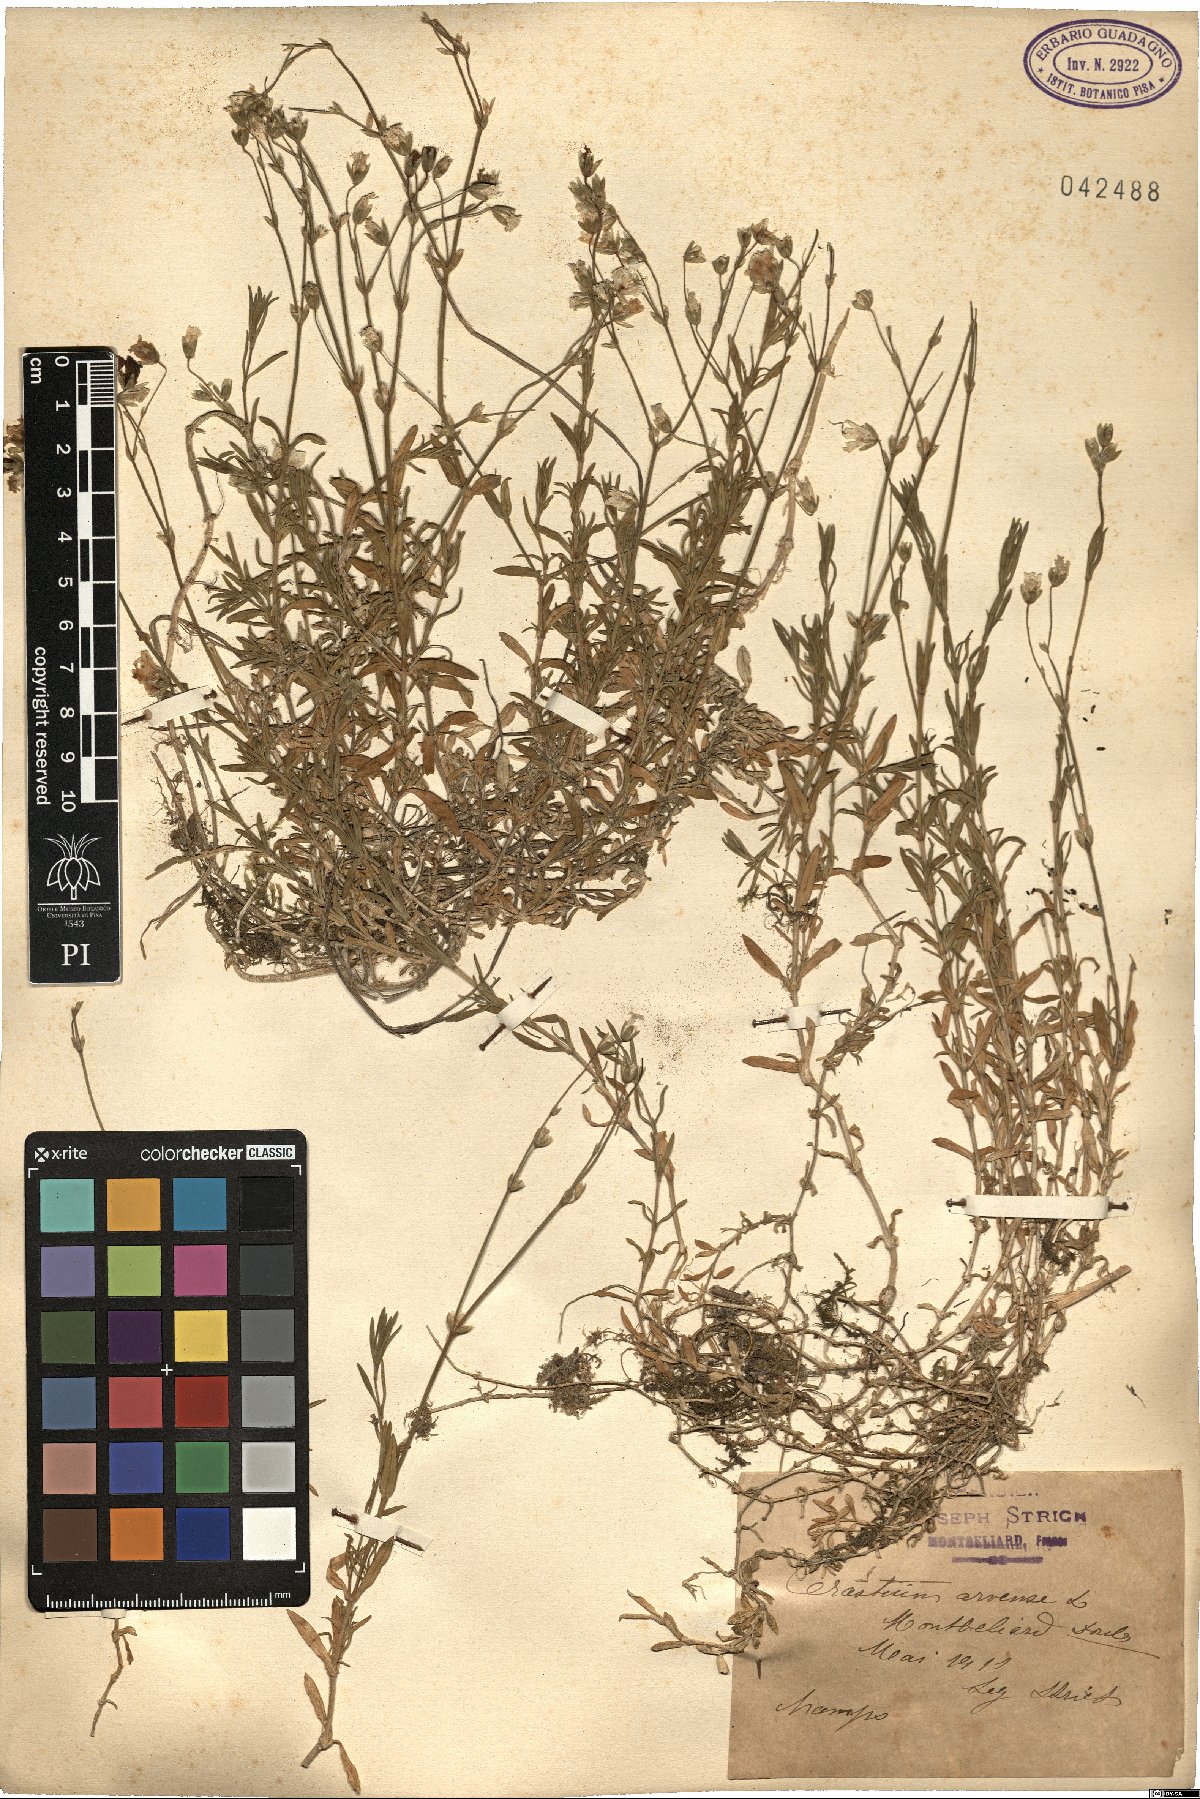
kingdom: Plantae
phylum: Tracheophyta
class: Magnoliopsida
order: Caryophyllales
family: Caryophyllaceae
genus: Cerastium
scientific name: Cerastium arvense
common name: Field mouse-ear
